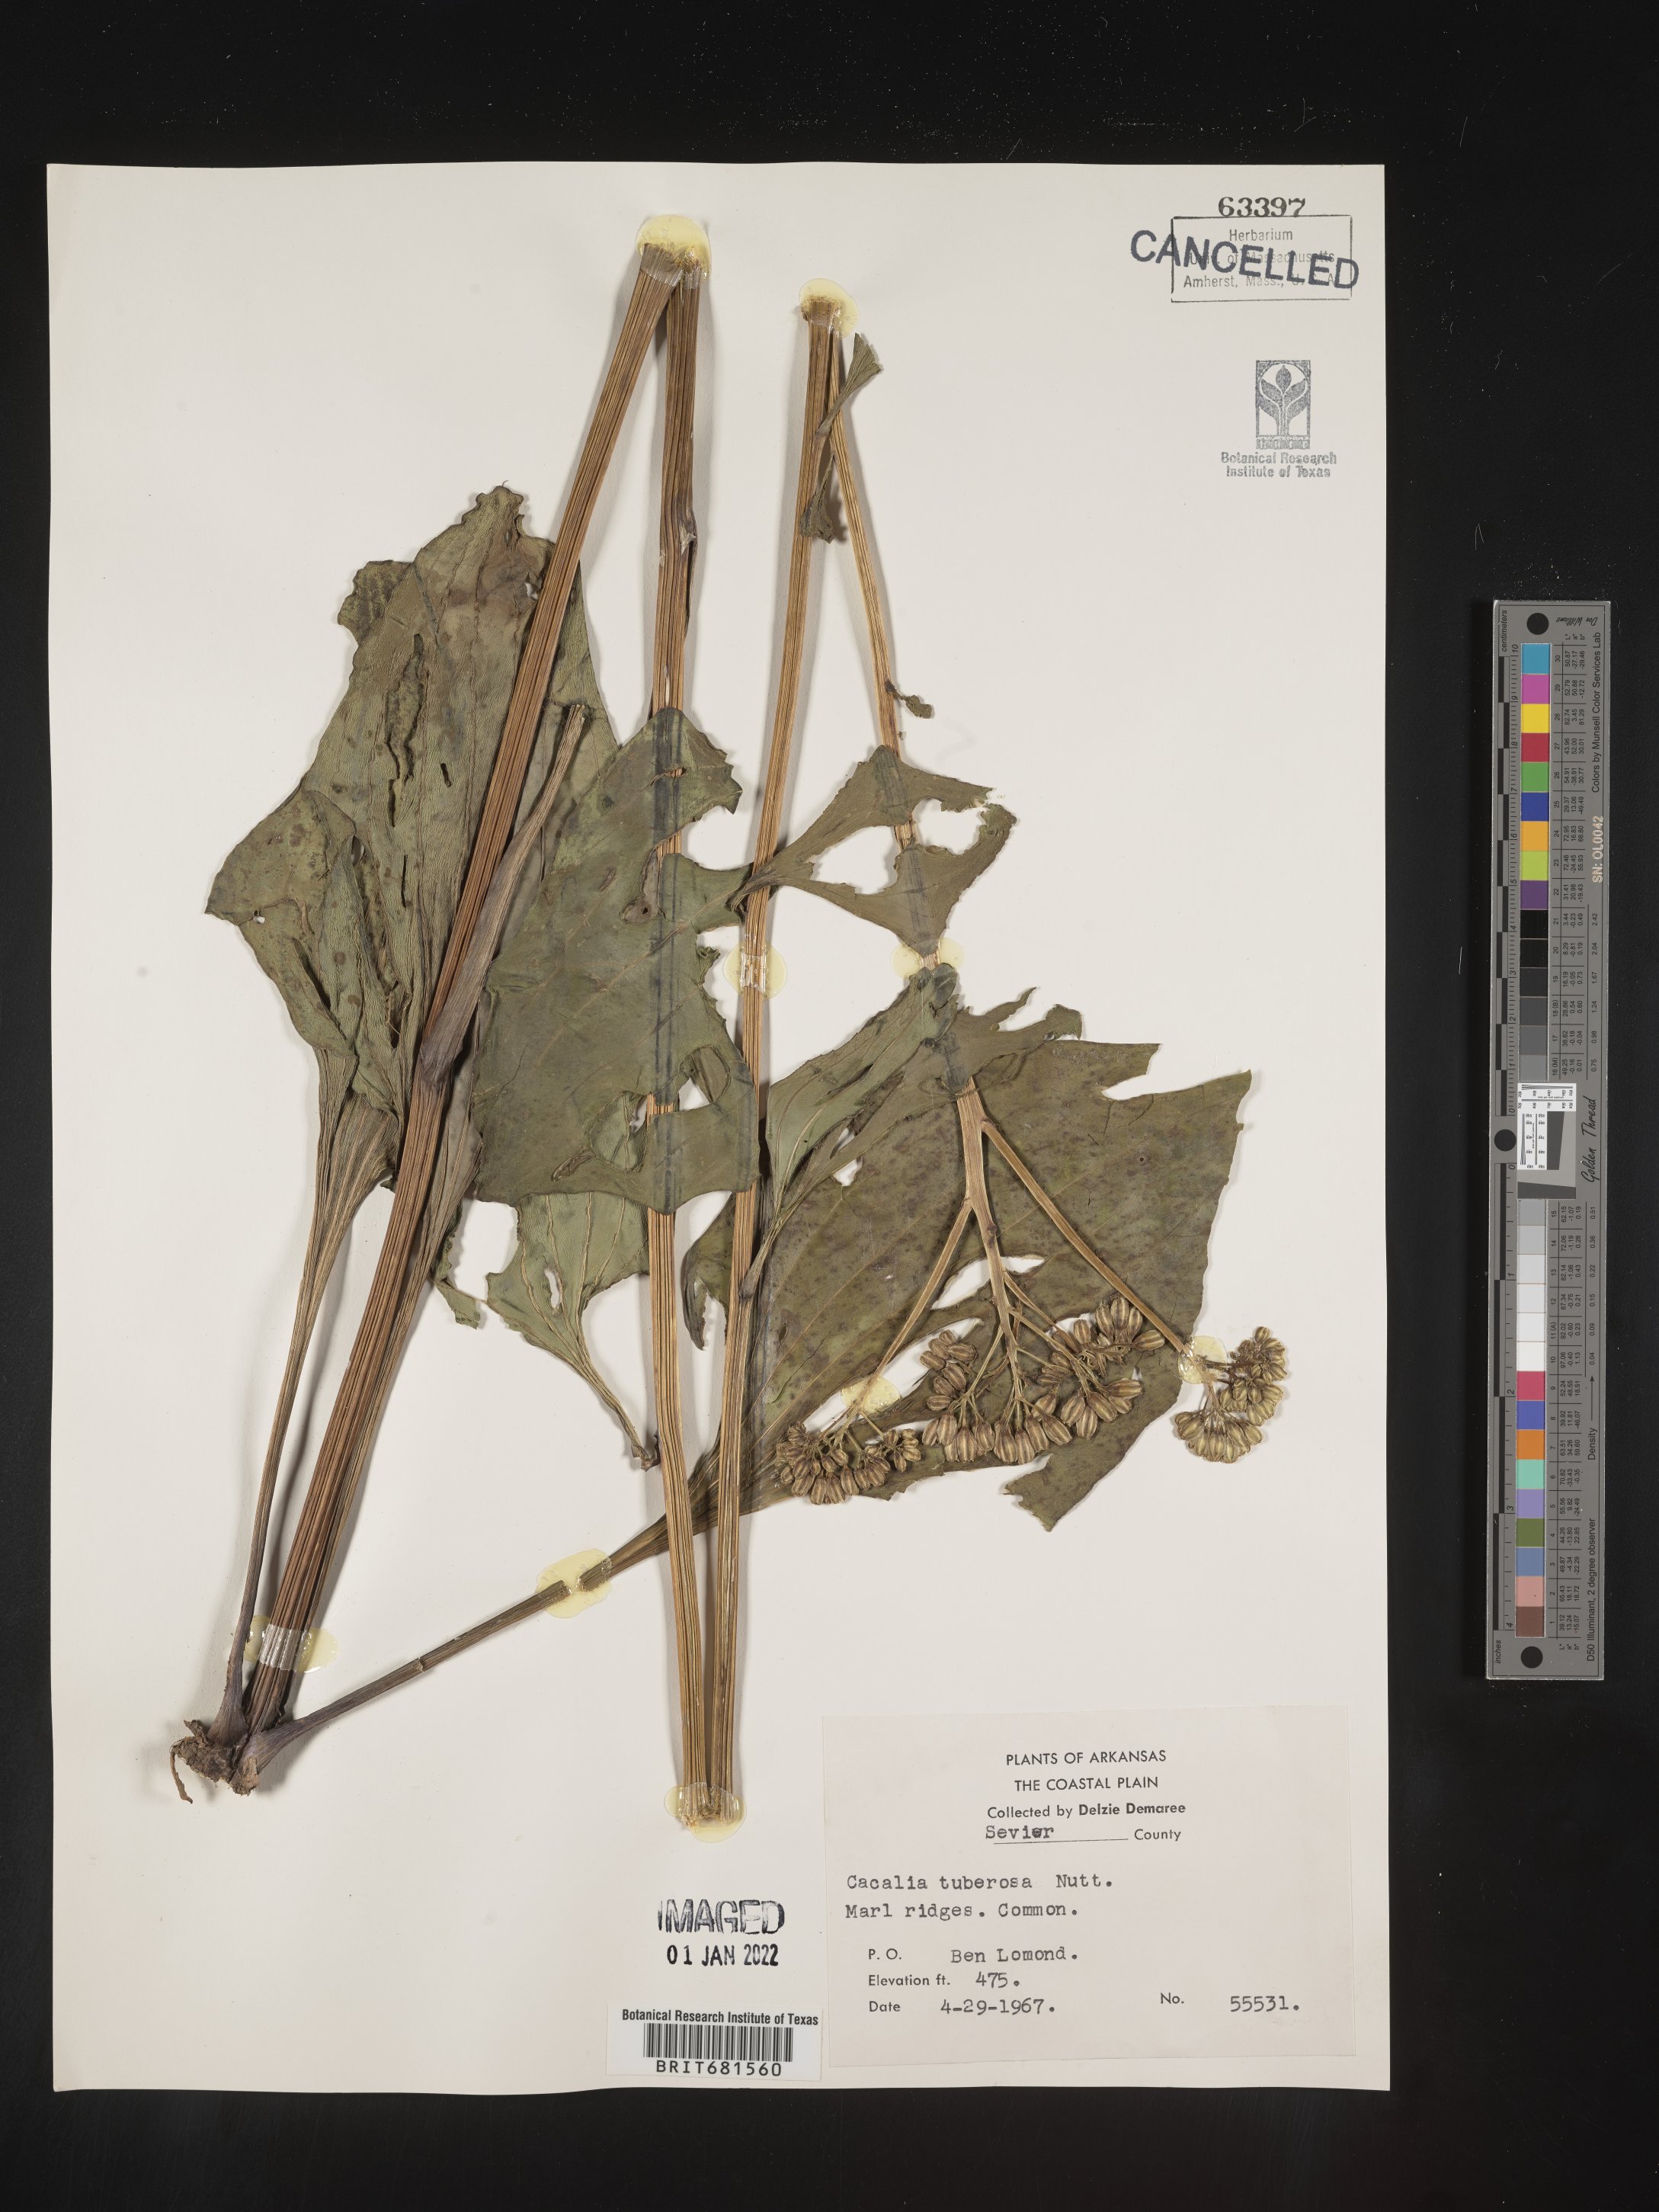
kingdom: Plantae
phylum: Tracheophyta
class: Magnoliopsida
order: Asterales
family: Asteraceae
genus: Arnoglossum
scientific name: Arnoglossum plantagineum
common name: Groove-stemmed indian-plantain
